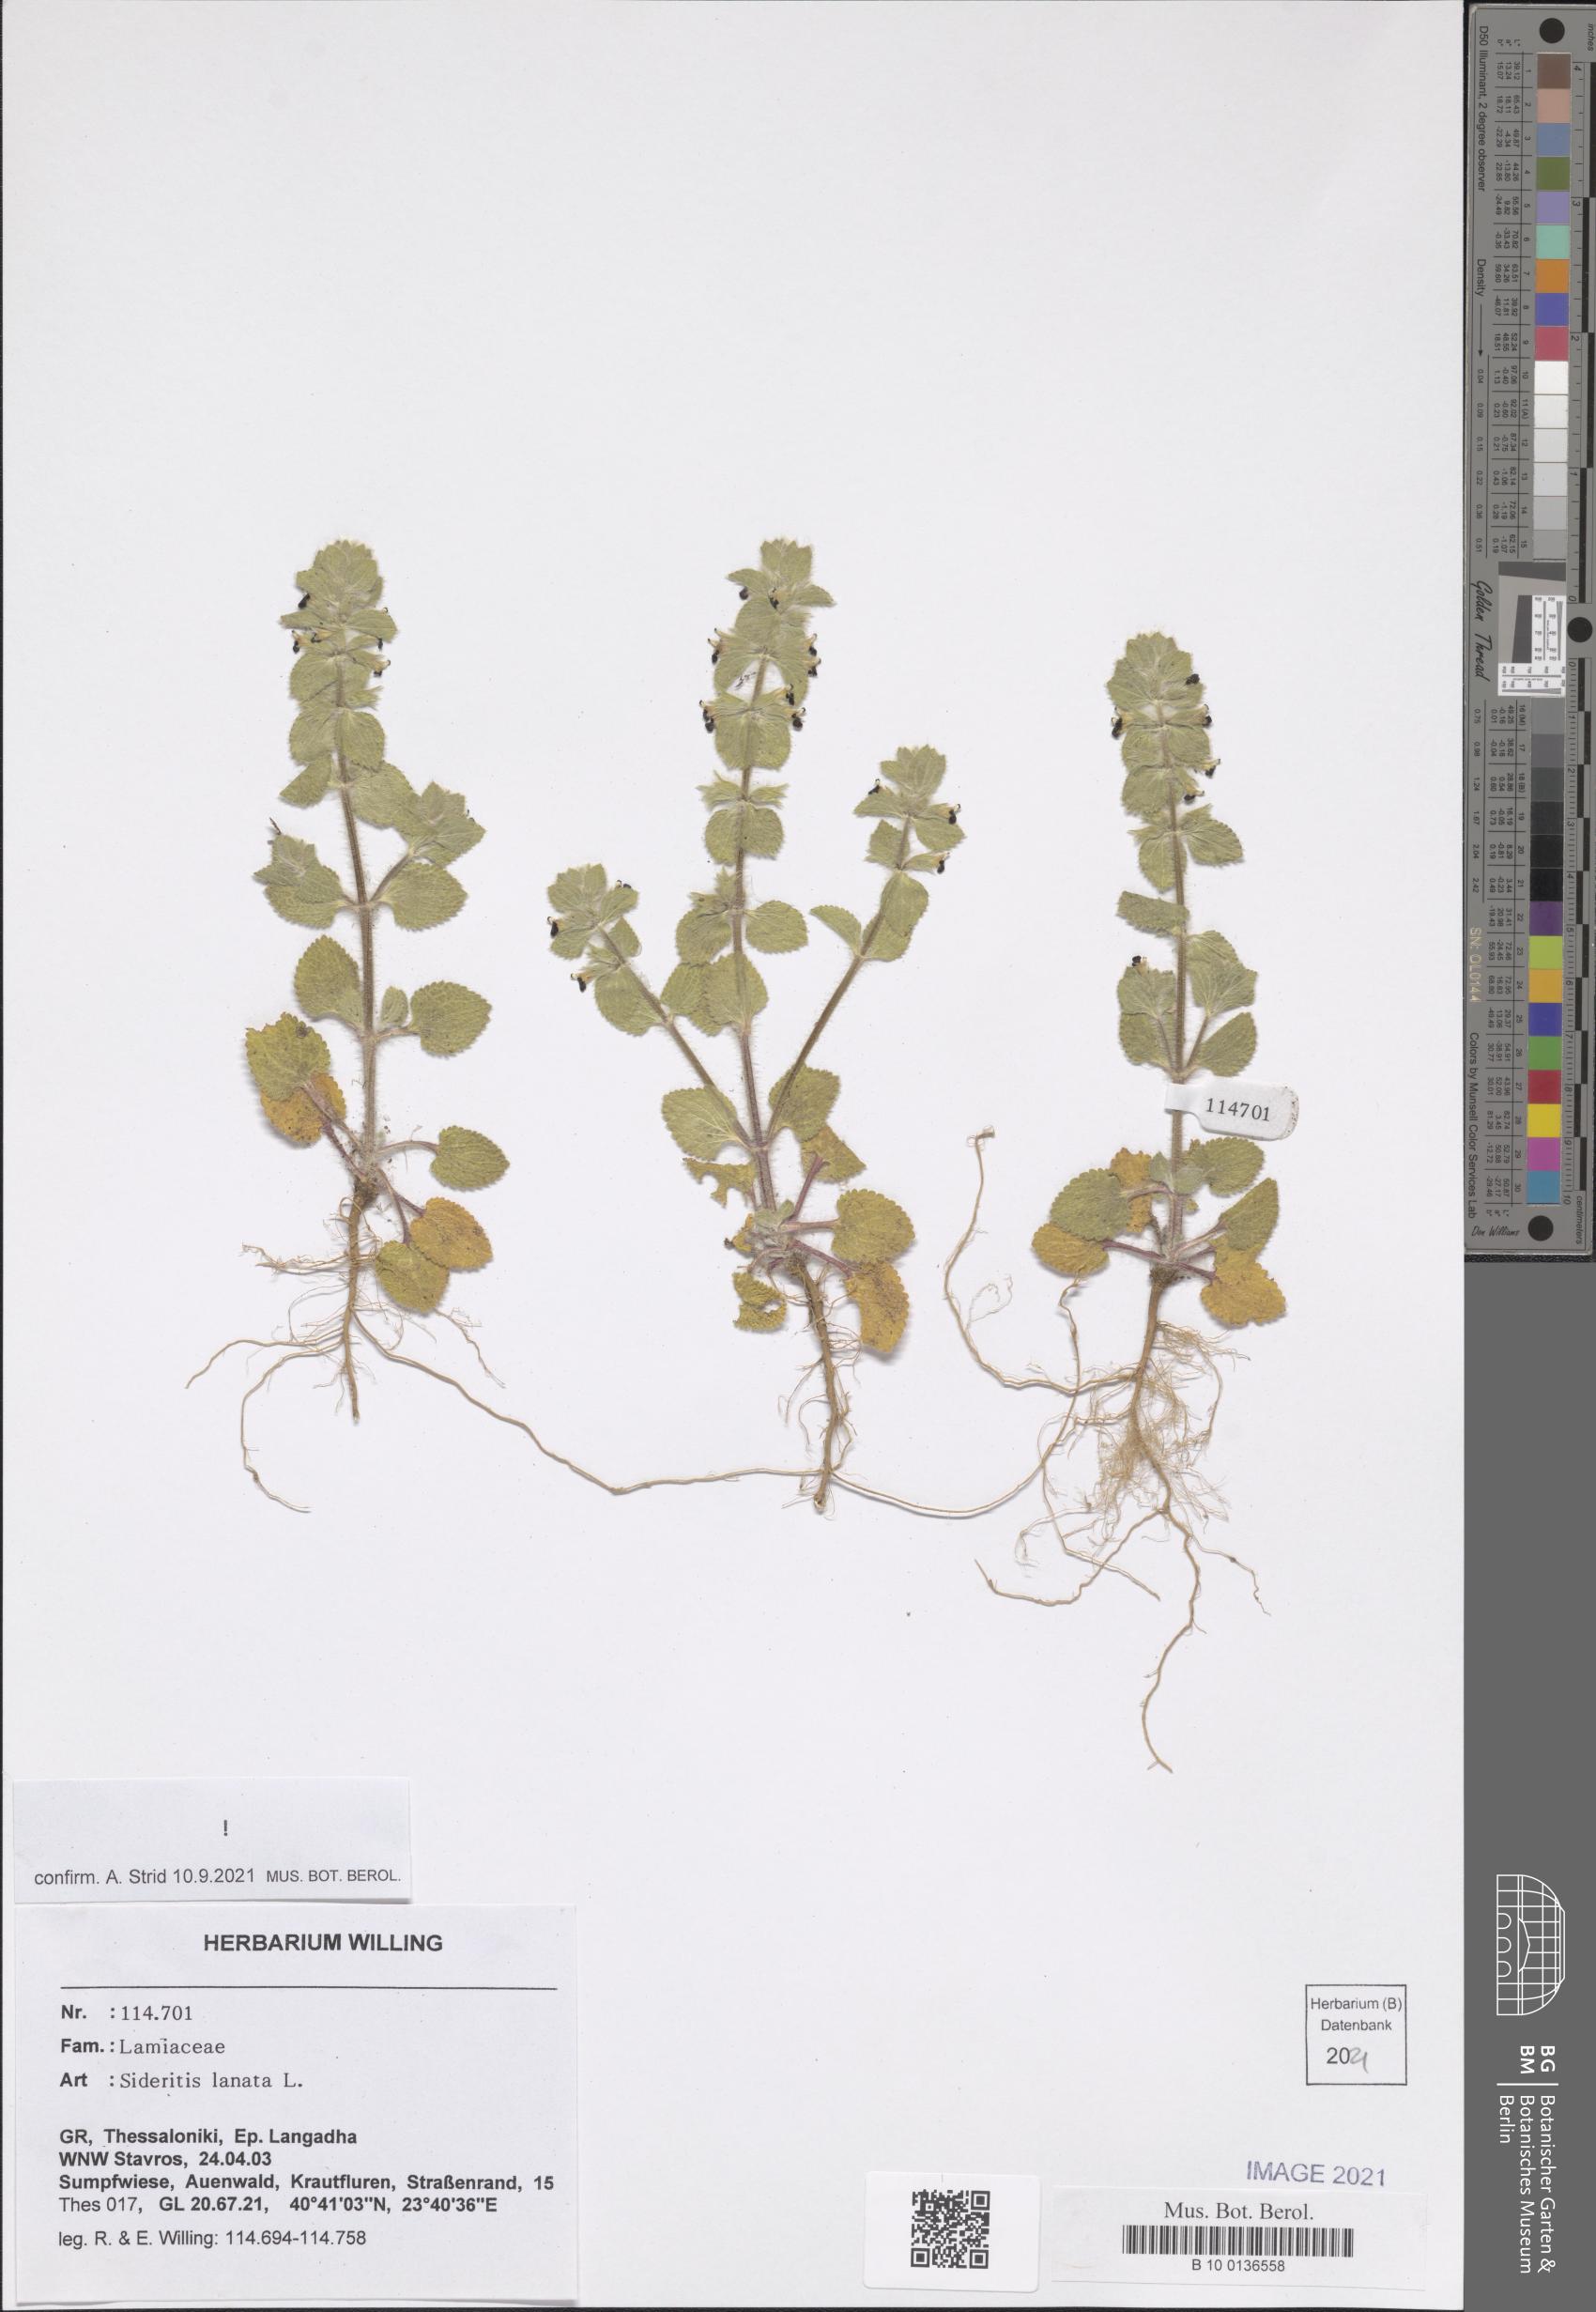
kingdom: Plantae
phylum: Tracheophyta
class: Magnoliopsida
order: Lamiales
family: Lamiaceae
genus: Sideritis
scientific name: Sideritis lanata
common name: Hairy ironwort
